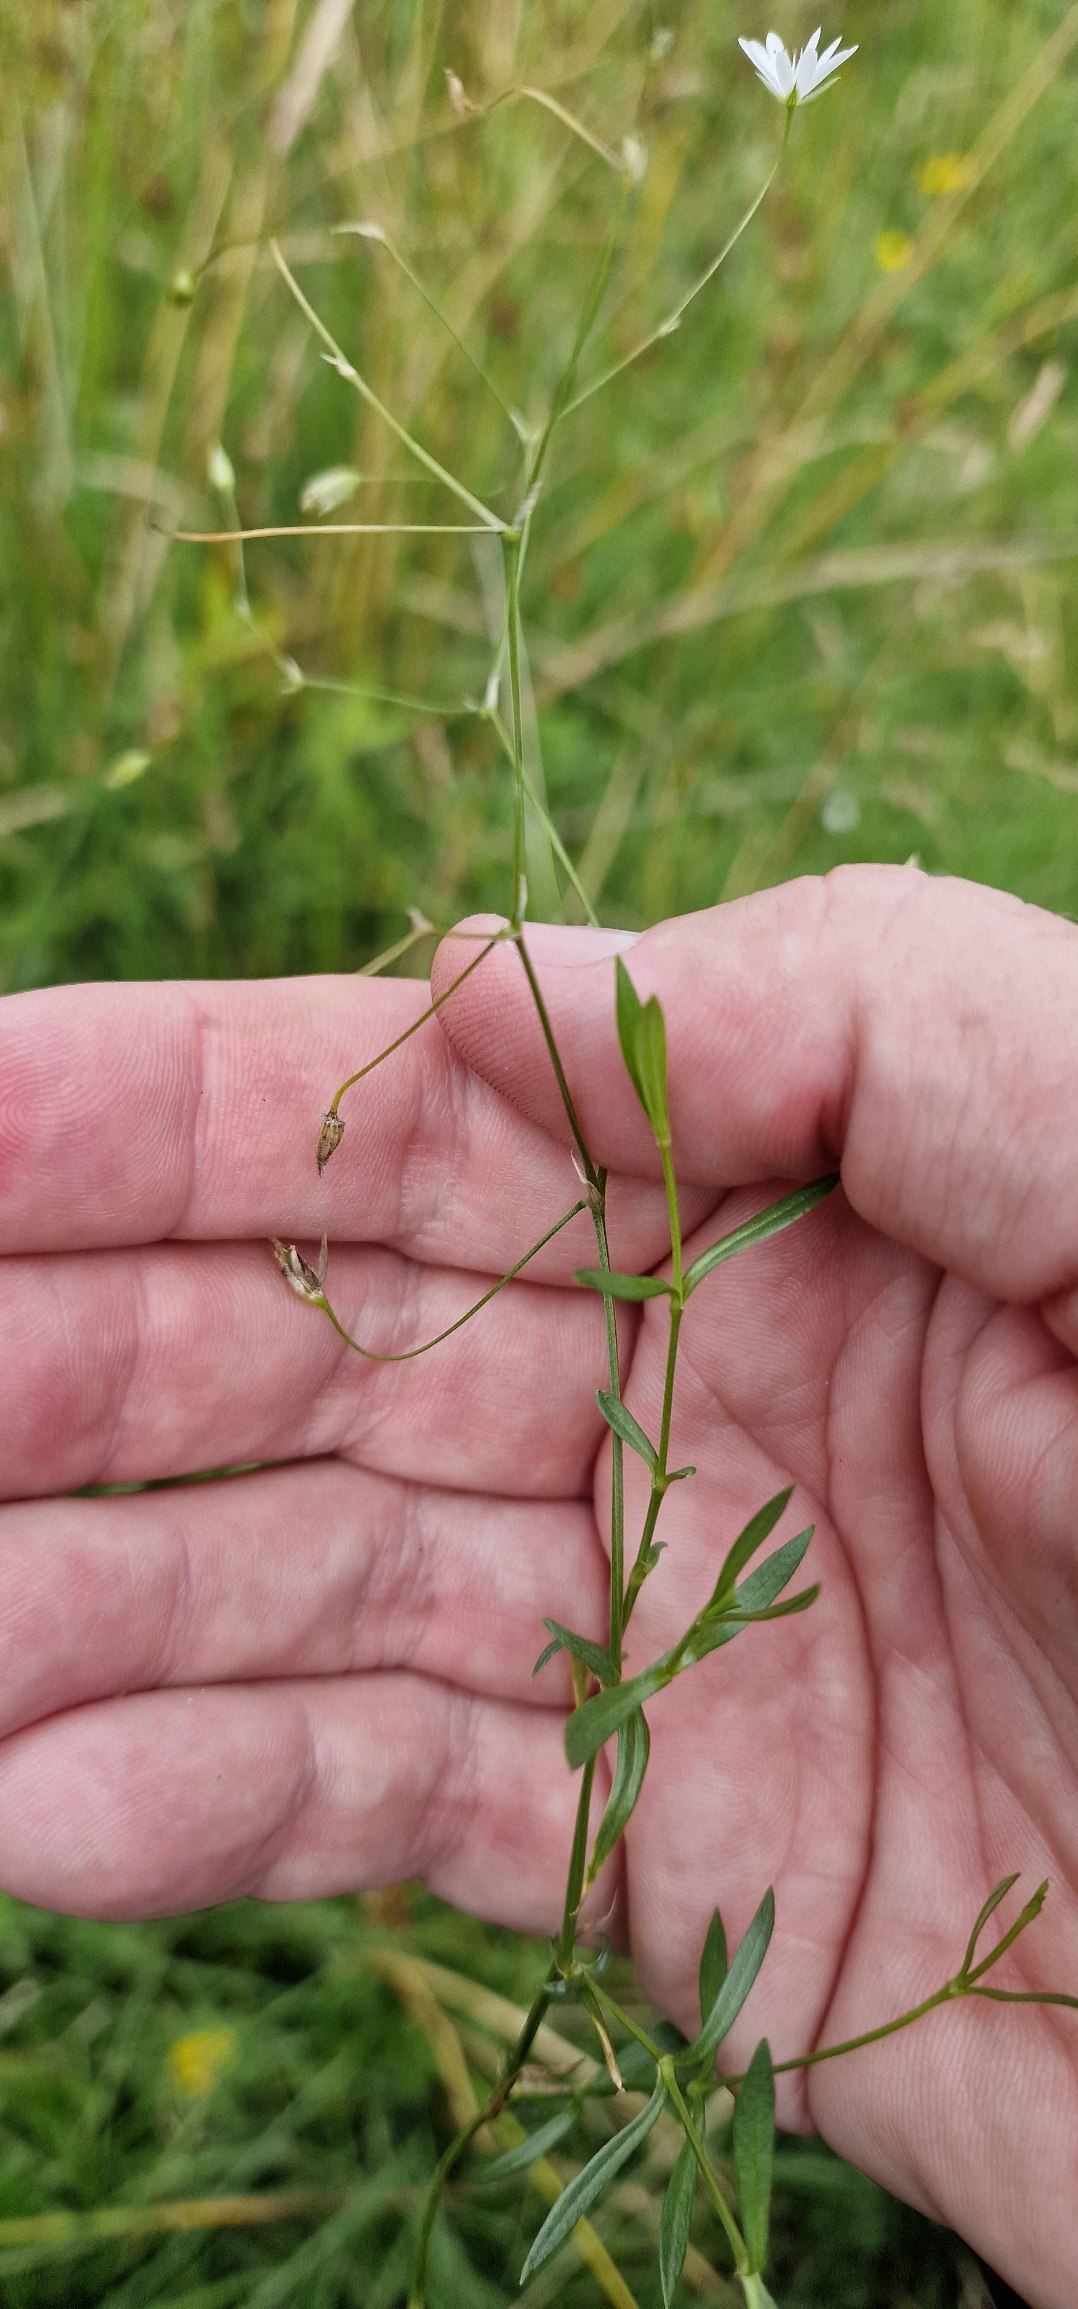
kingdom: Plantae
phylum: Tracheophyta
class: Magnoliopsida
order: Caryophyllales
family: Caryophyllaceae
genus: Stellaria
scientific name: Stellaria palustris
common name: Kær-fladstjerne
